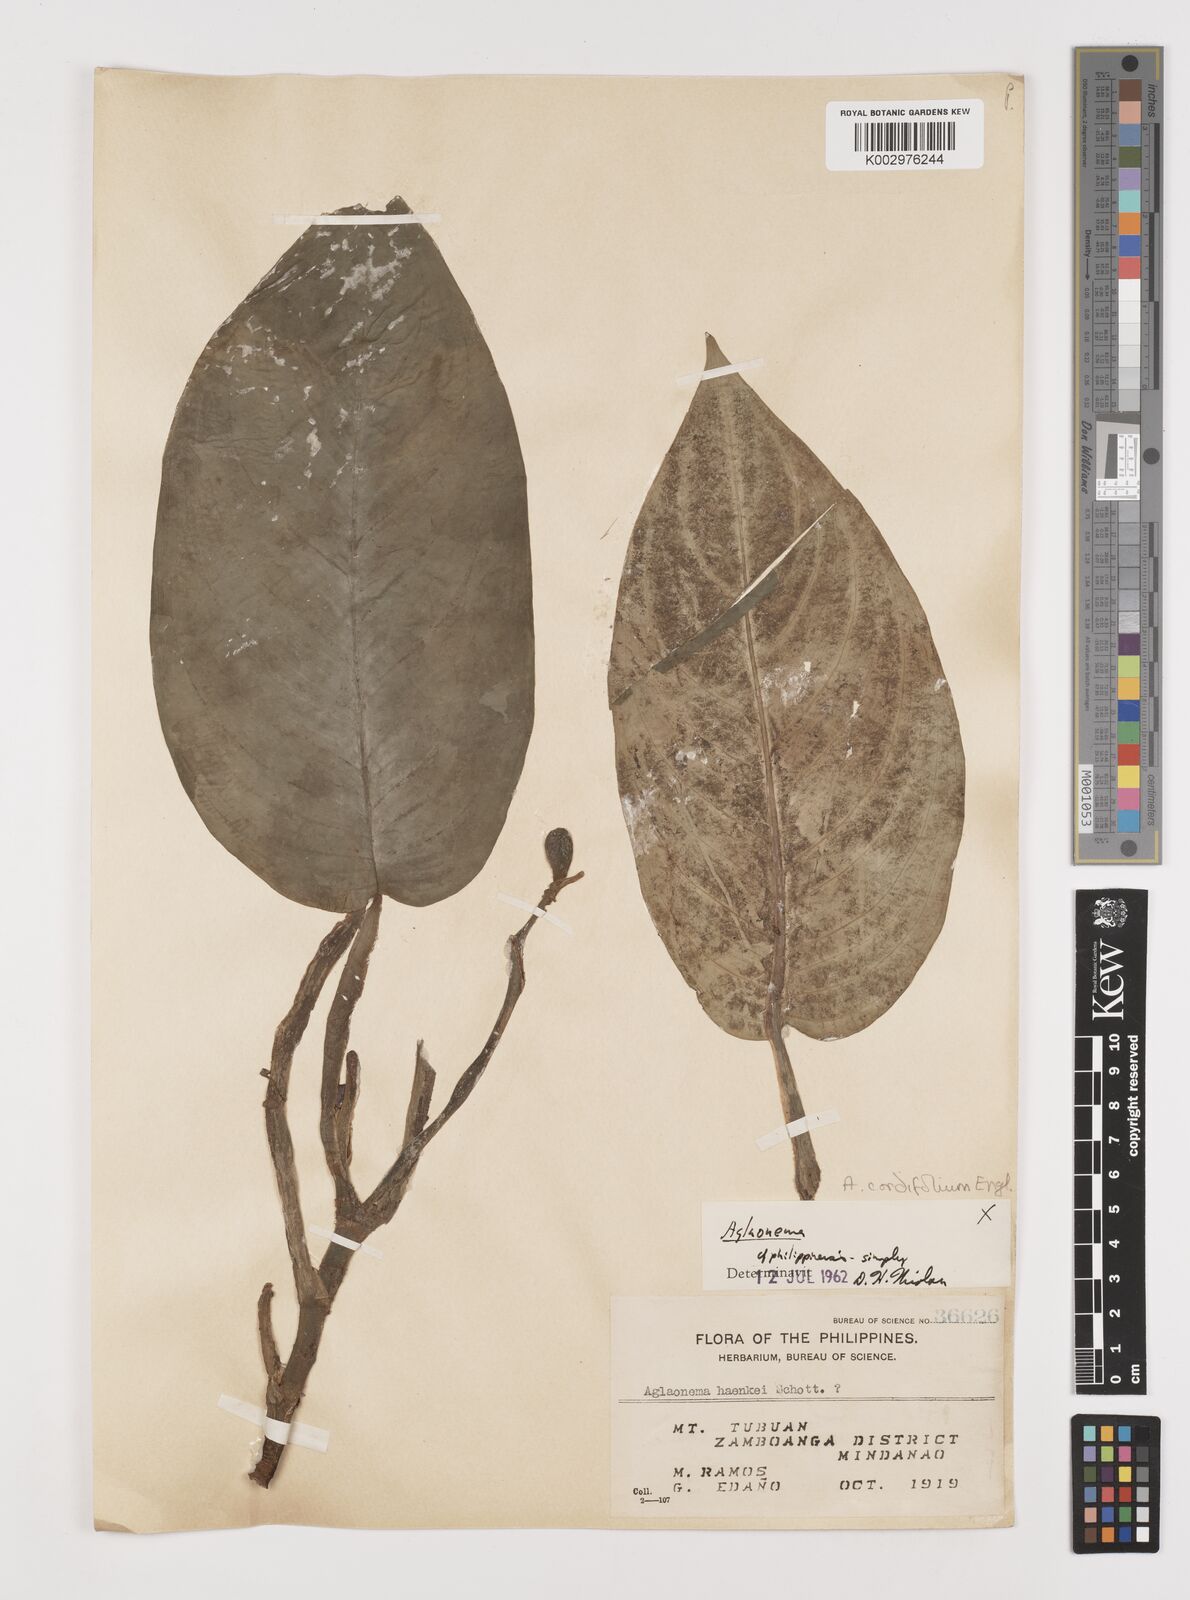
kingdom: Plantae
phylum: Tracheophyta
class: Liliopsida
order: Alismatales
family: Araceae
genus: Aglaonema
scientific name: Aglaonema simplex
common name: Malayan-sword
